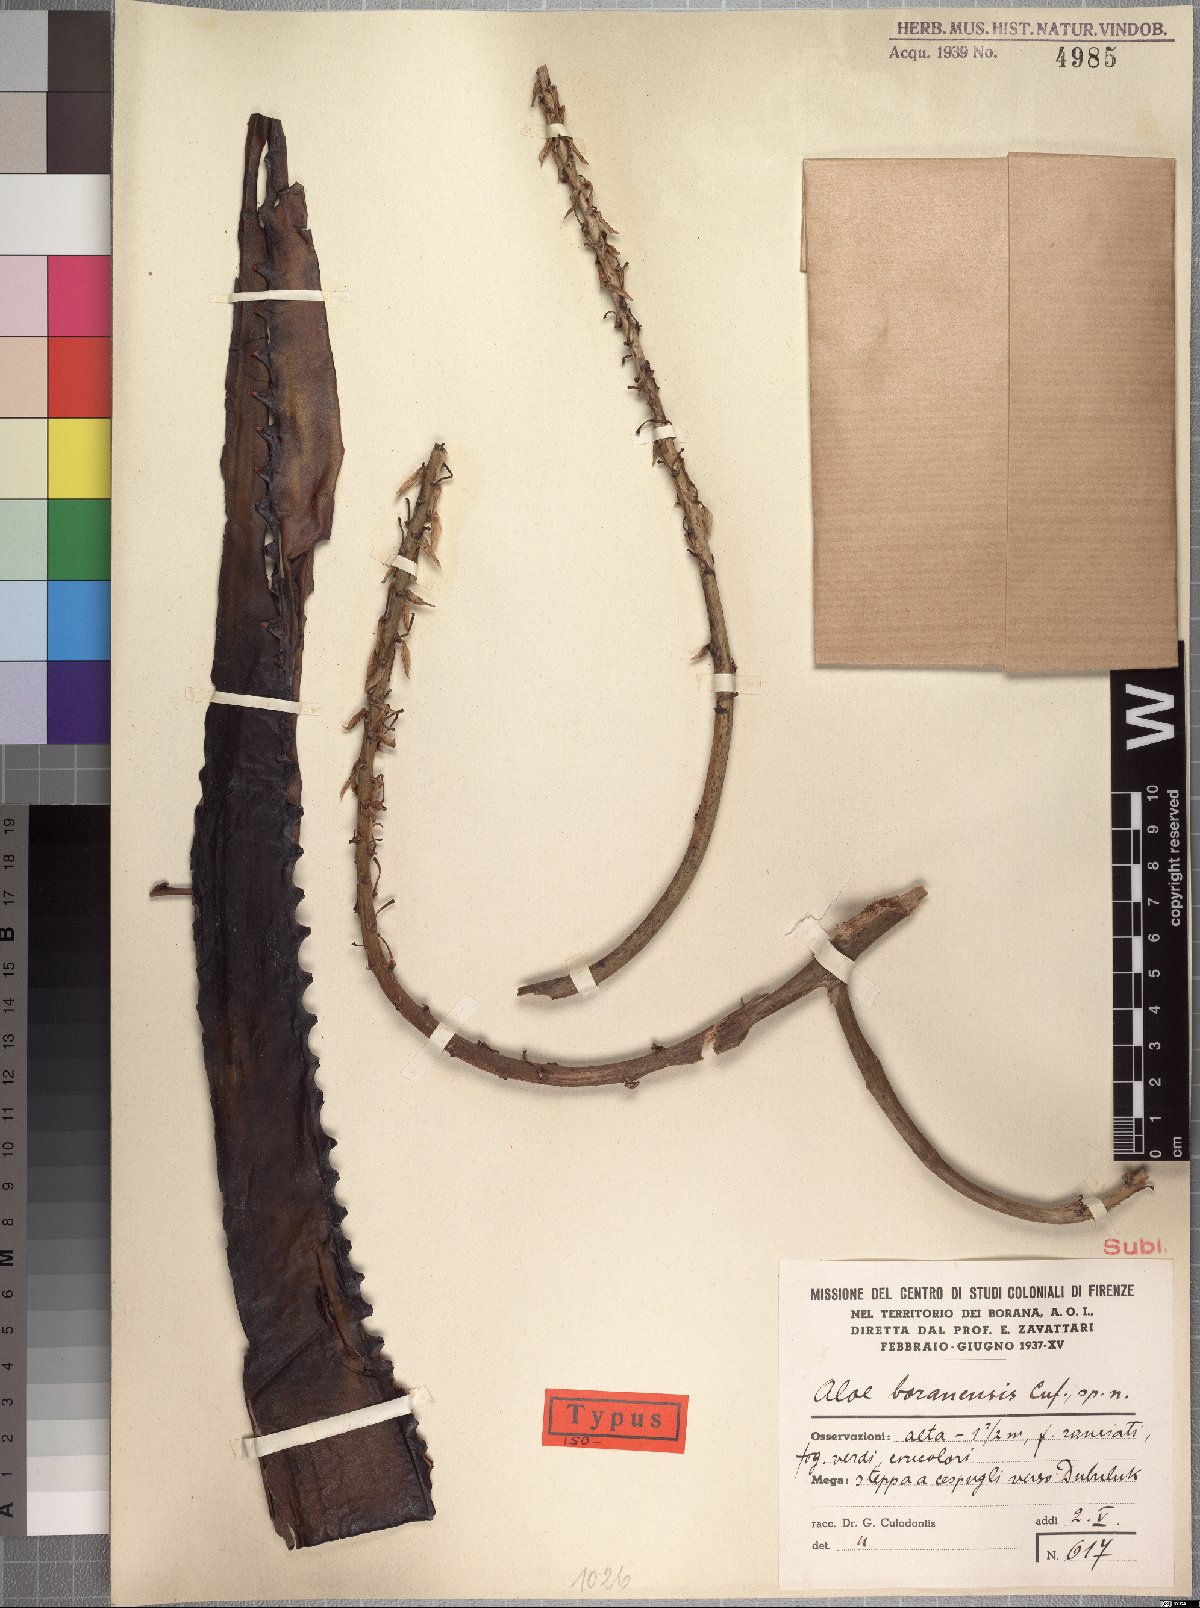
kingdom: Plantae
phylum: Tracheophyta
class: Liliopsida
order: Asparagales
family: Asphodelaceae
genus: Aloe
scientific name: Aloe otallensis
